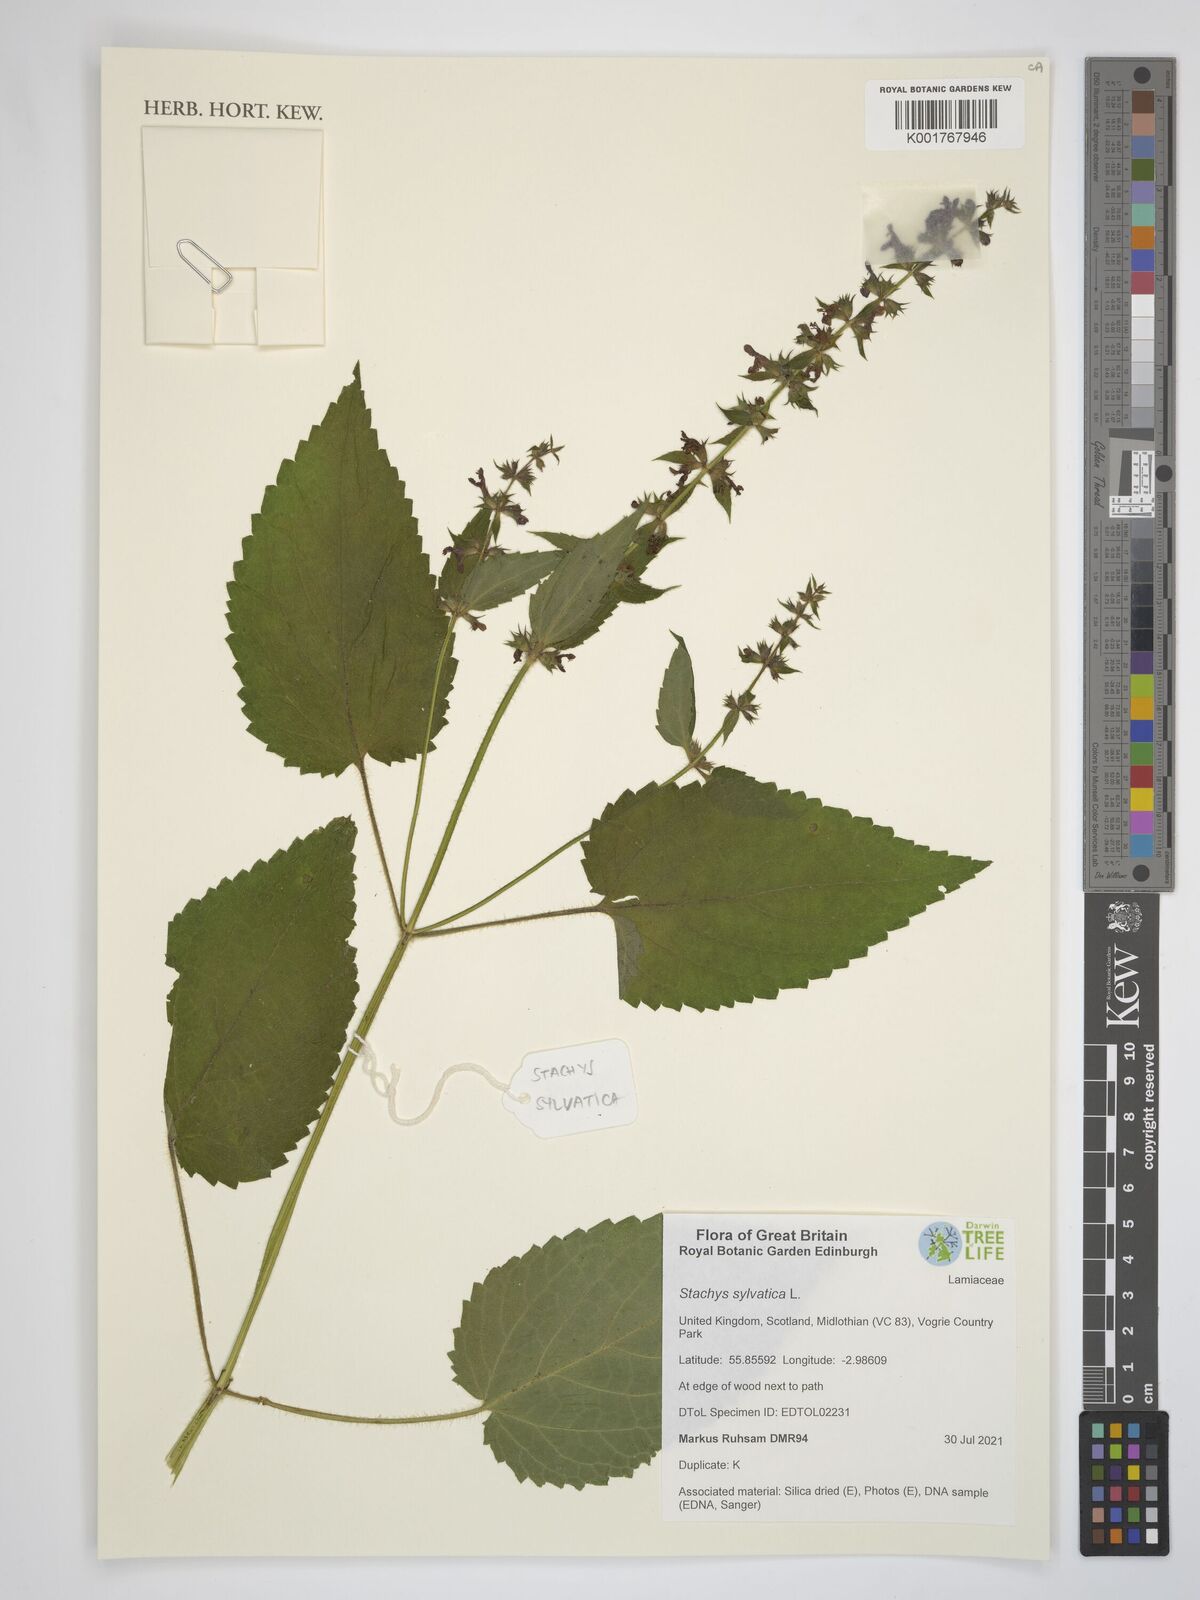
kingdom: Plantae
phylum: Tracheophyta
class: Magnoliopsida
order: Lamiales
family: Lamiaceae
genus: Stachys
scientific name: Stachys sylvatica
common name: Hedge woundwort
